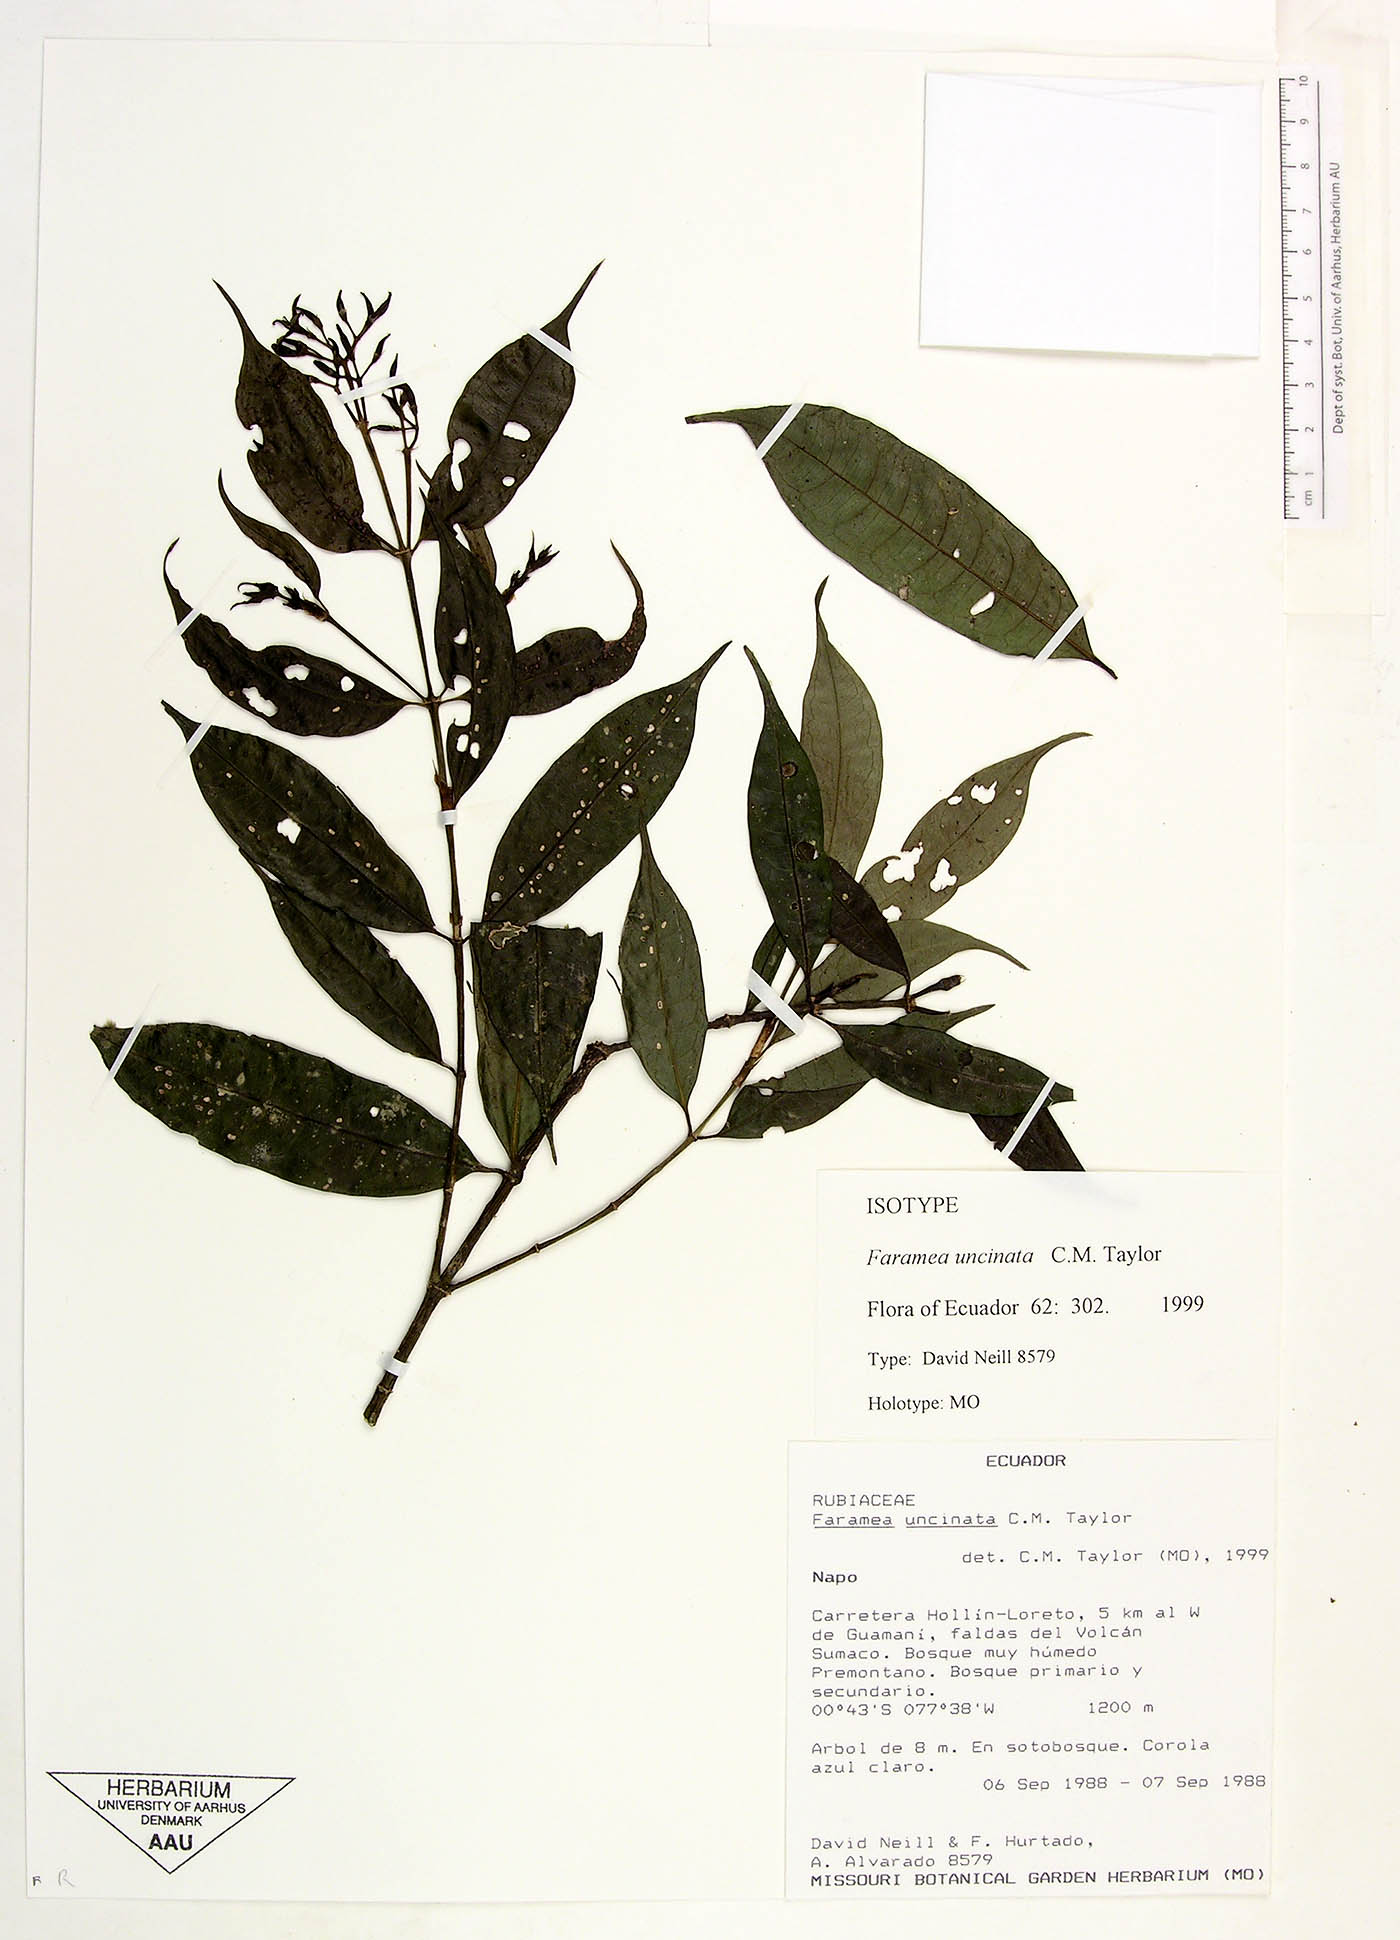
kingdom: Plantae
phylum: Tracheophyta
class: Magnoliopsida
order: Gentianales
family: Rubiaceae
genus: Faramea
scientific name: Faramea cuencana
